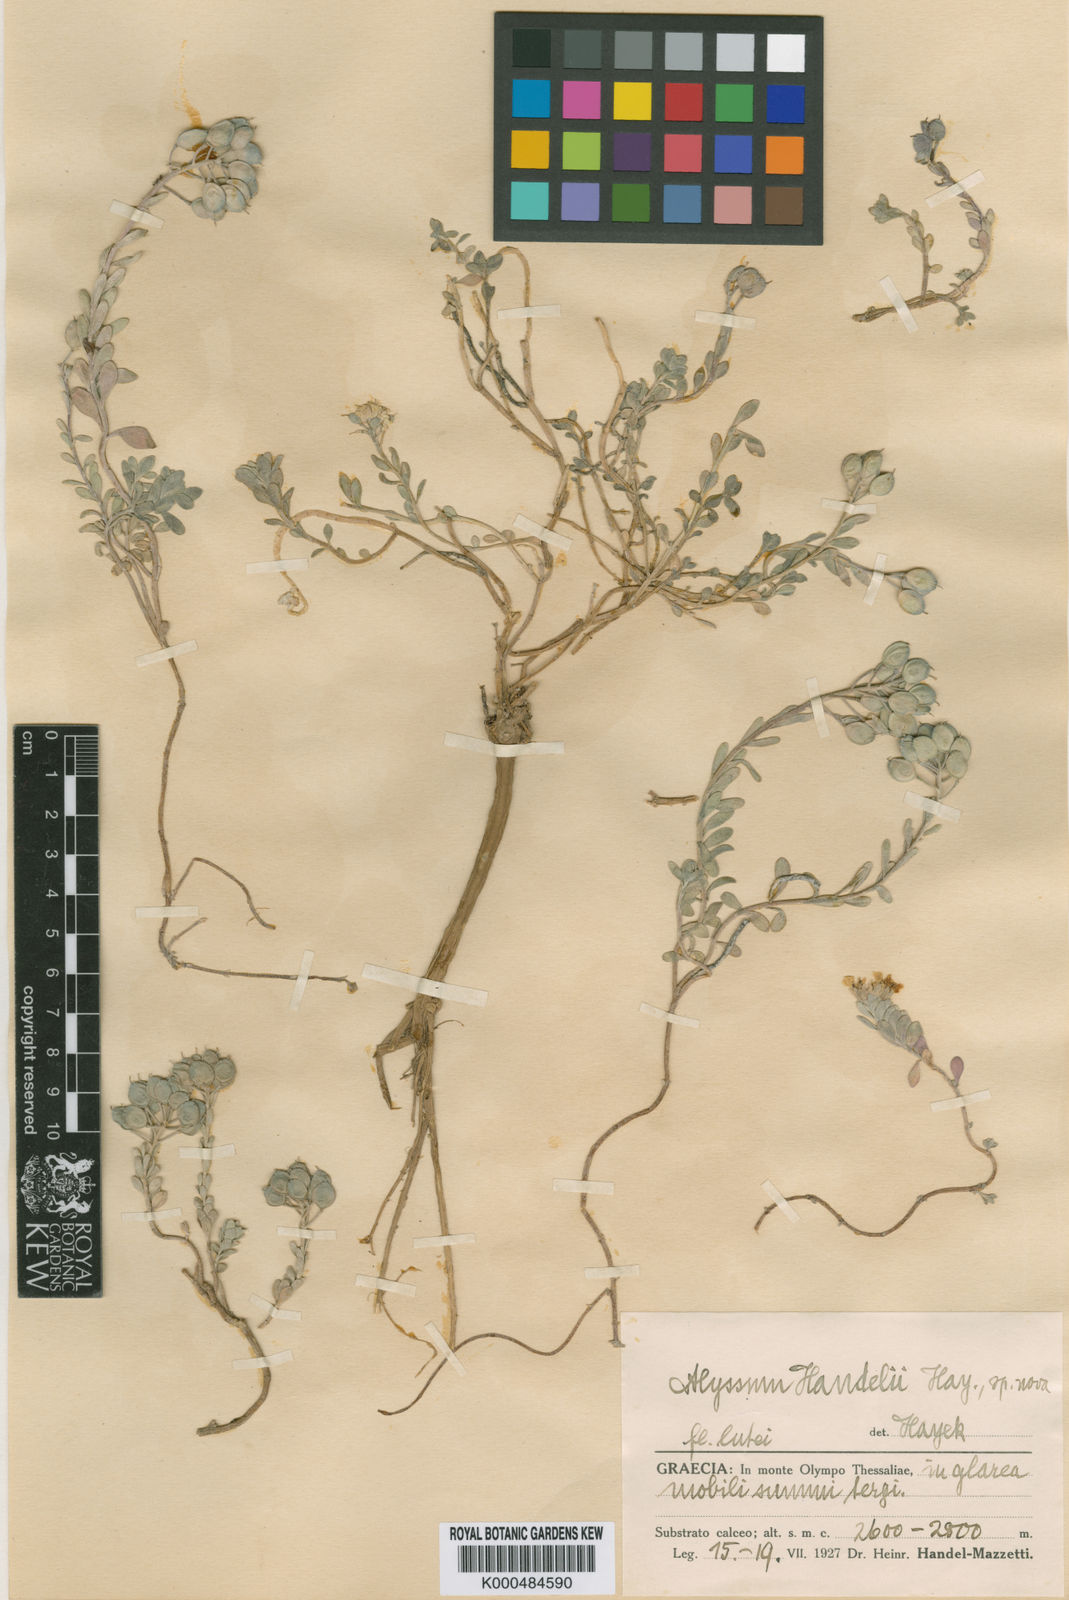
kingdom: Plantae
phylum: Tracheophyta
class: Magnoliopsida
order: Brassicales
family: Brassicaceae
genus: Alyssum
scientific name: Alyssum handelii
